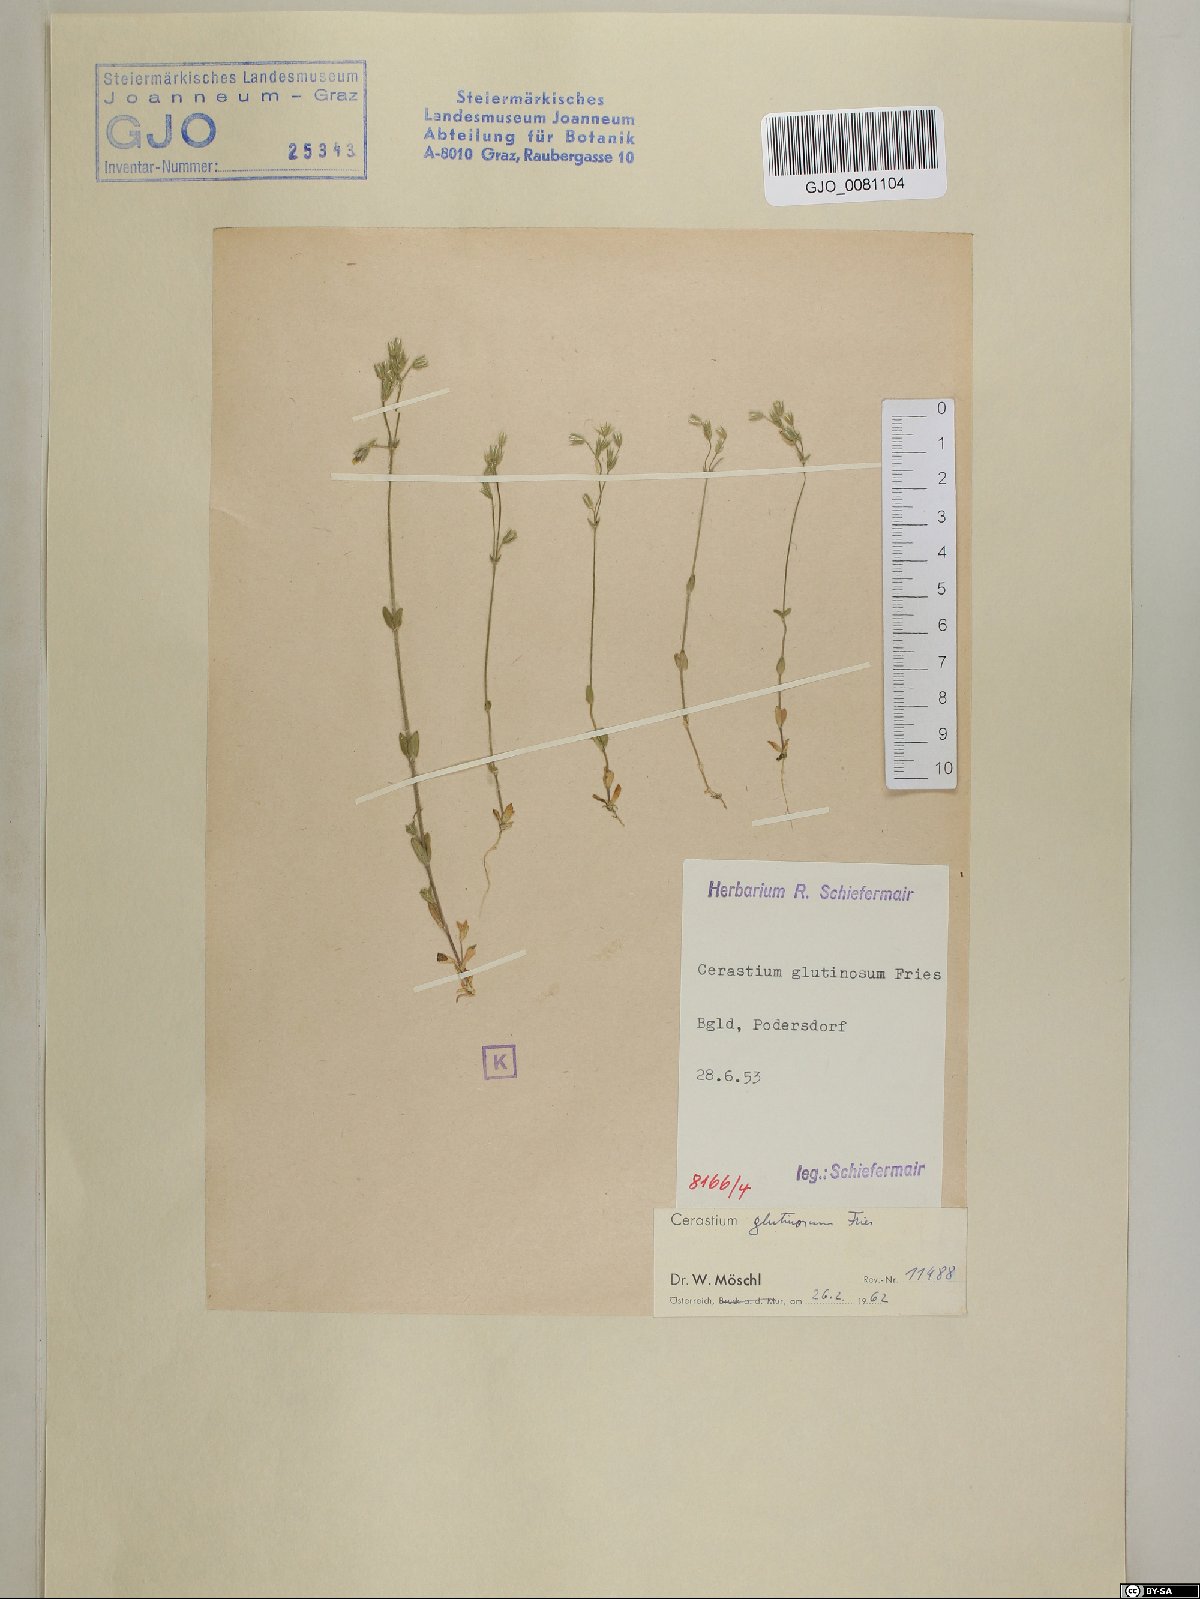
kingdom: Plantae
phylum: Tracheophyta
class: Magnoliopsida
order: Caryophyllales
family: Caryophyllaceae
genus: Cerastium
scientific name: Cerastium glutinosum
